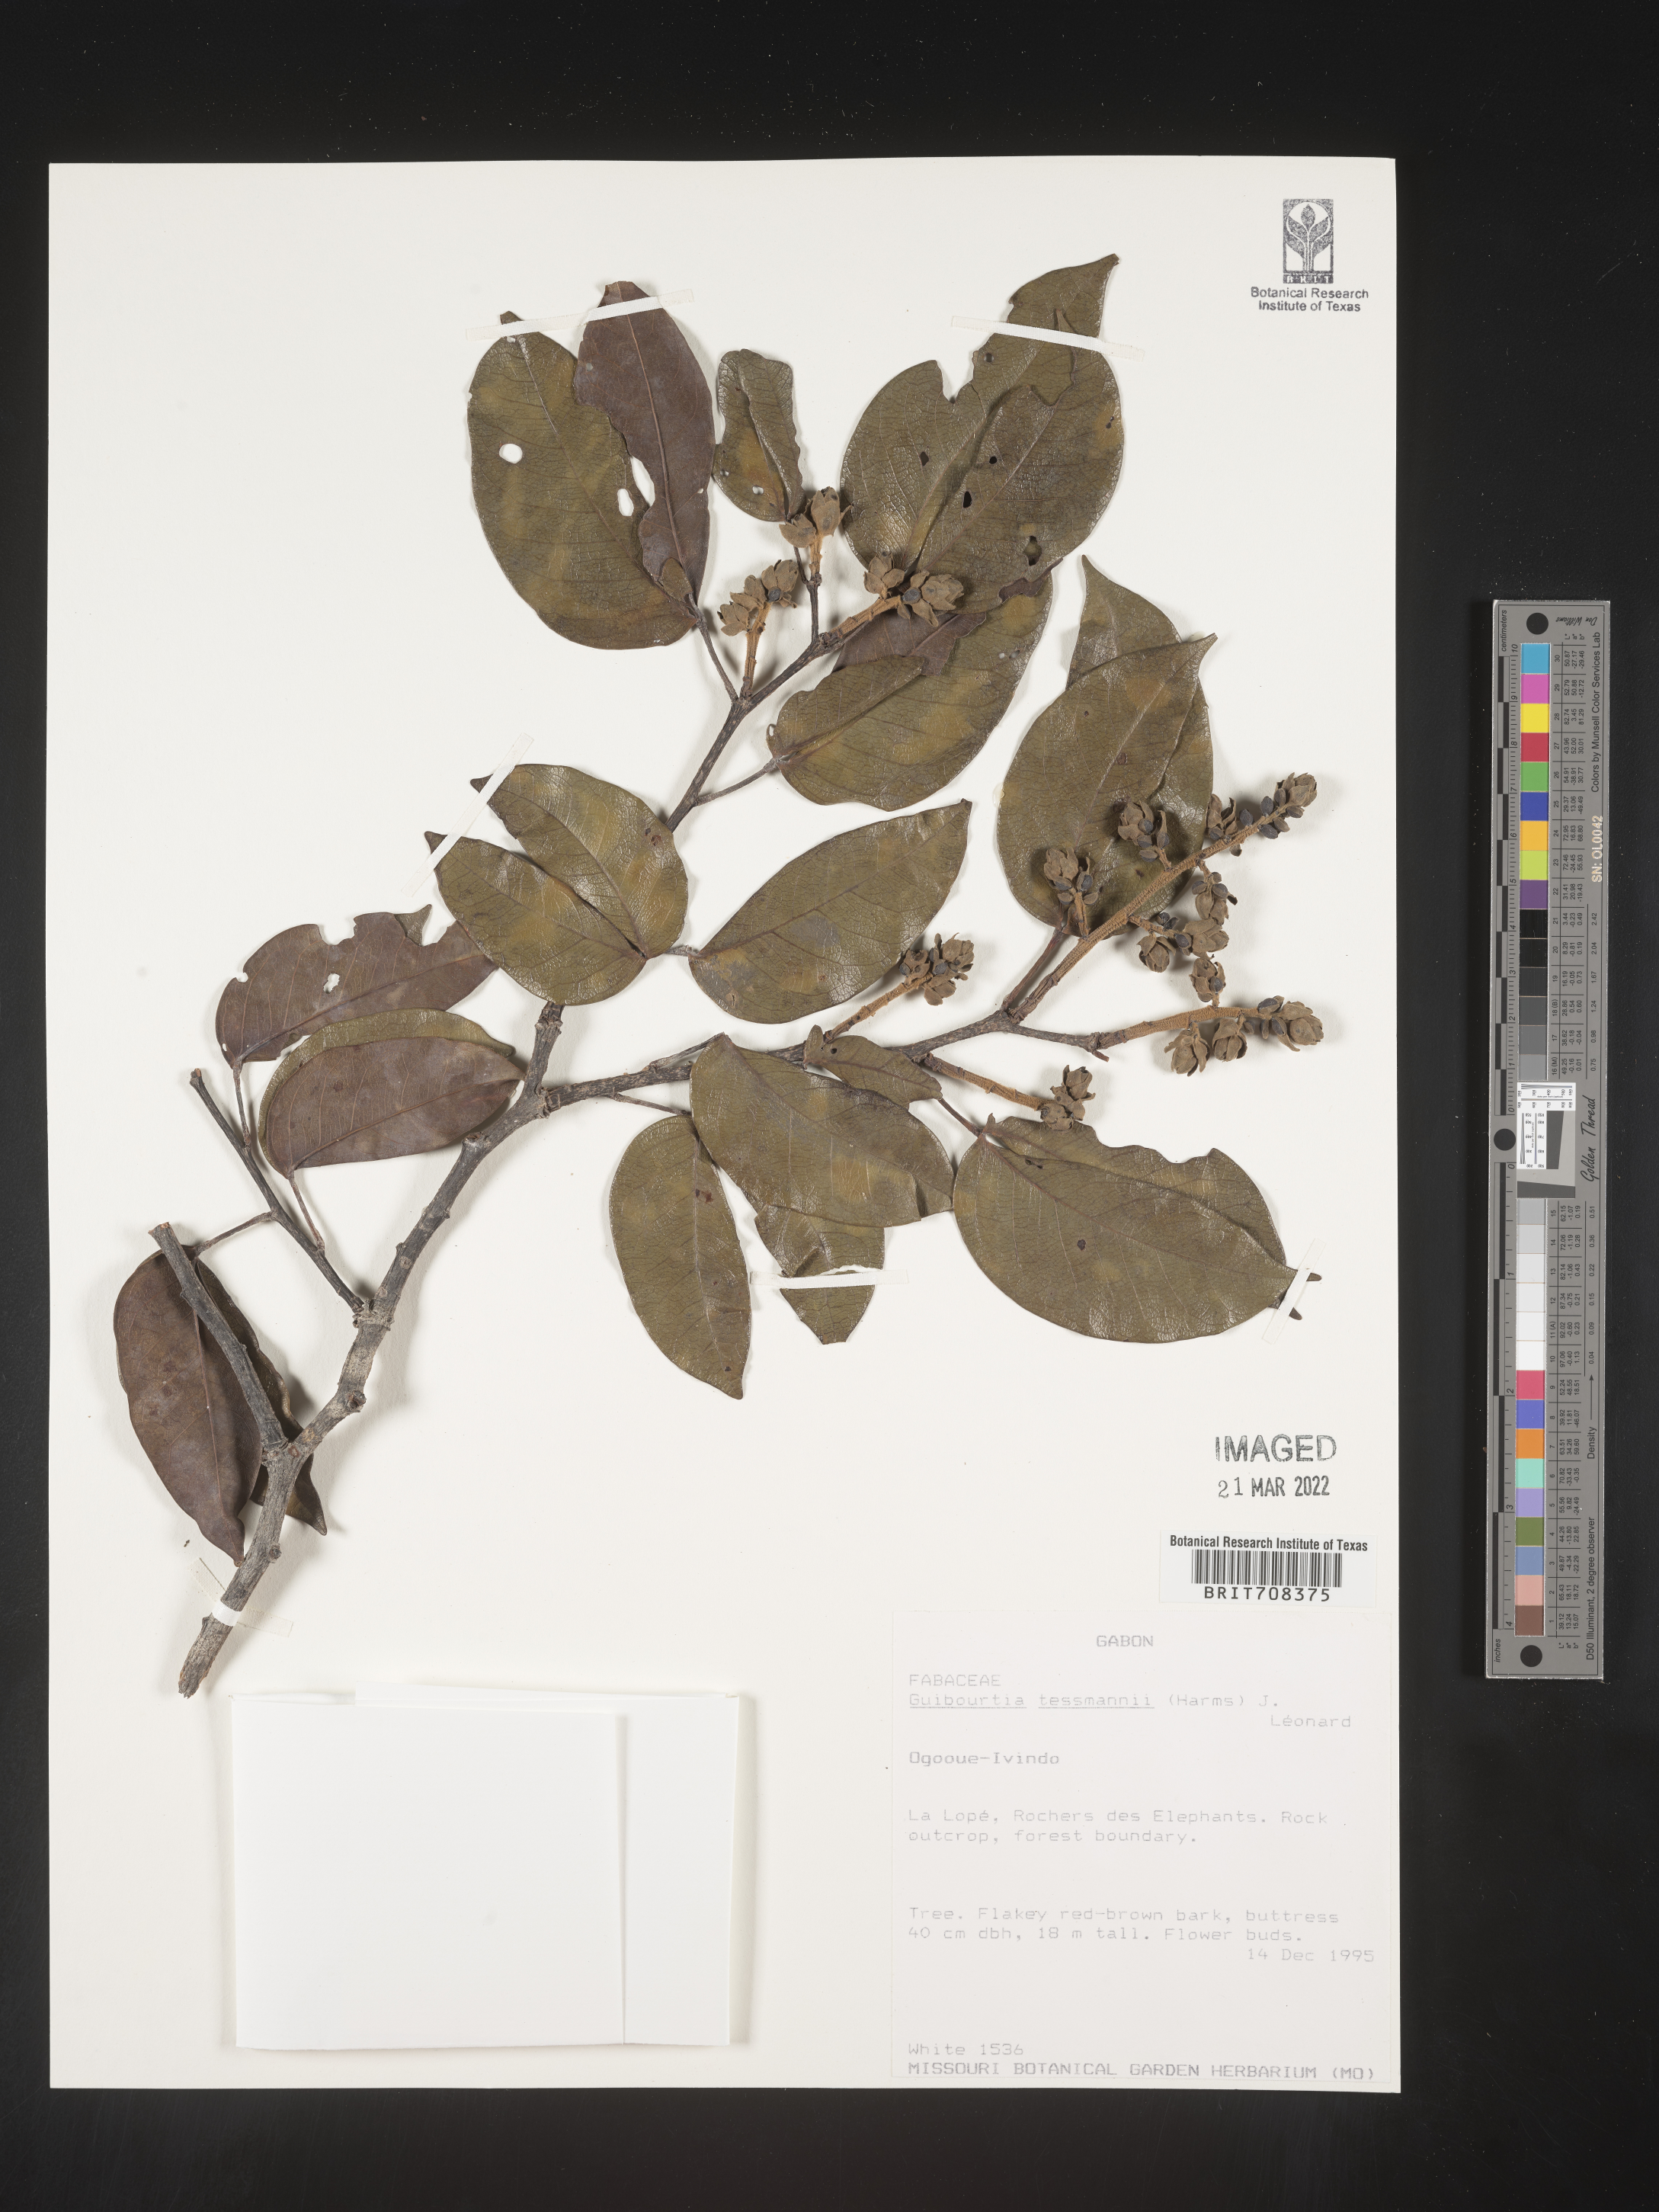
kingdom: Plantae
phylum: Tracheophyta
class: Magnoliopsida
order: Fabales
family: Fabaceae
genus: Guibourtia
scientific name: Guibourtia
